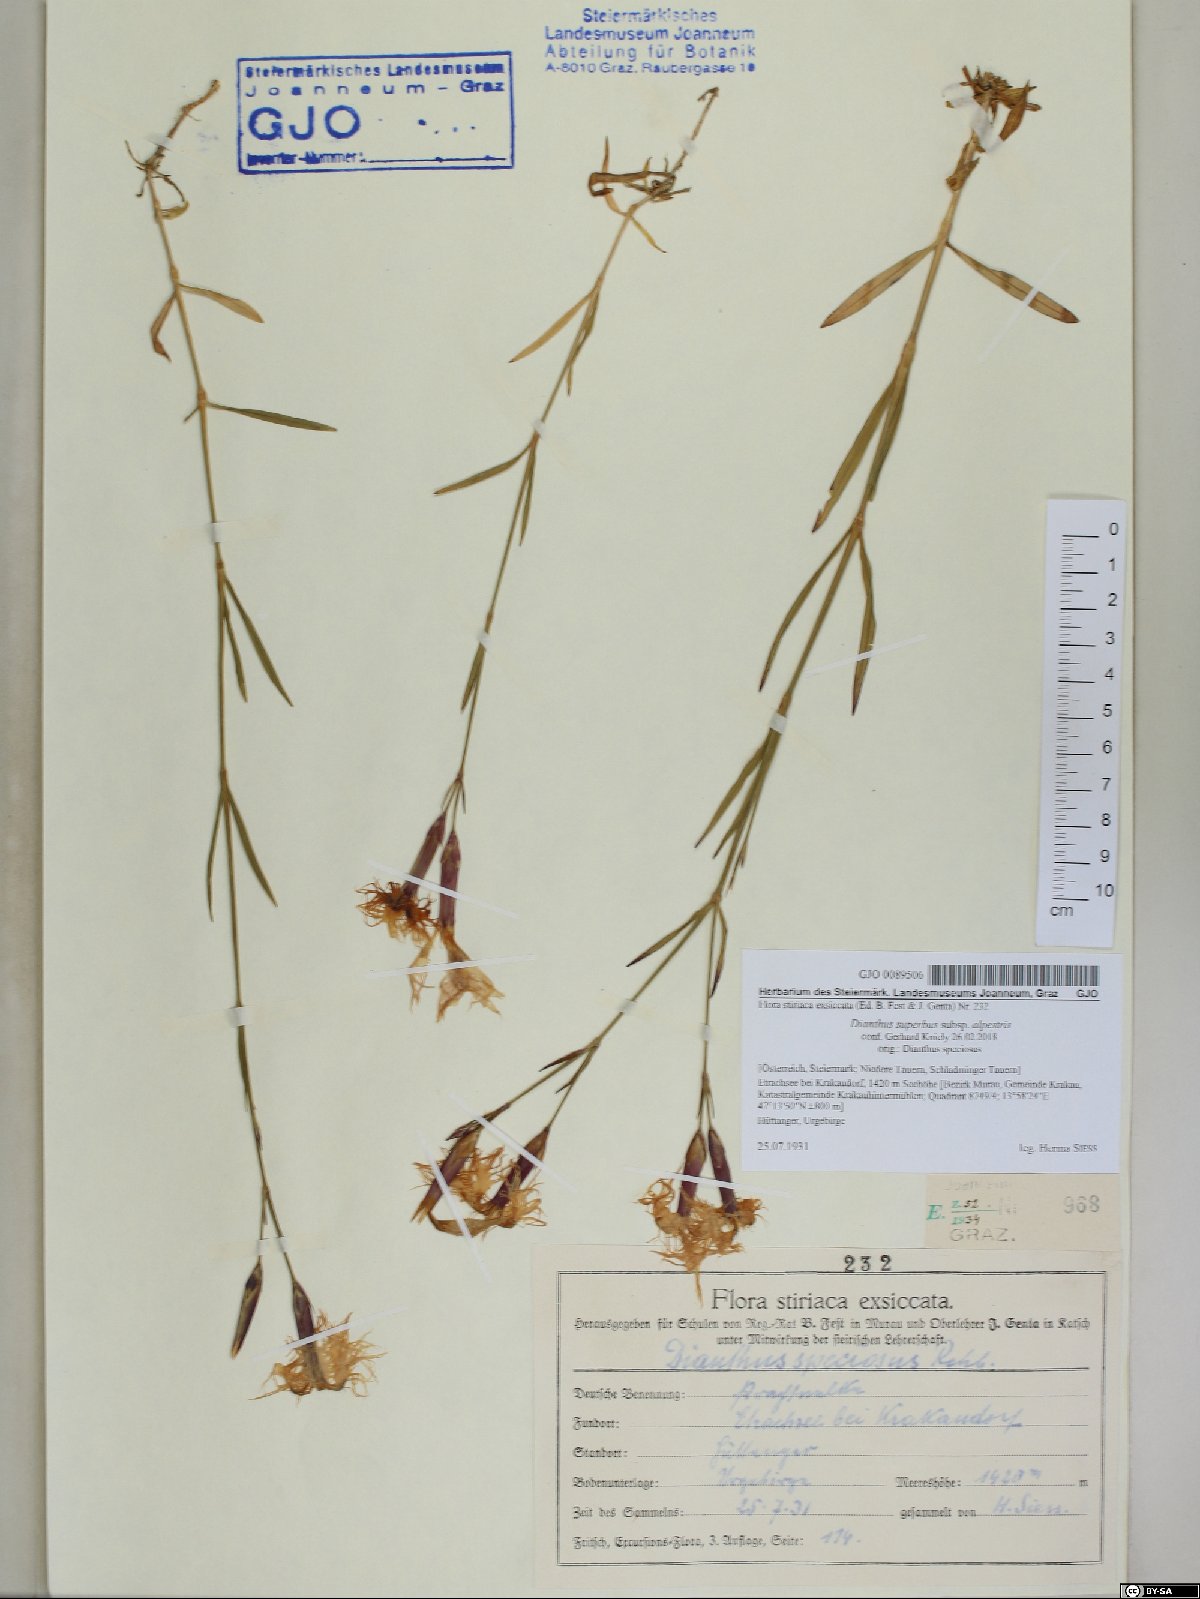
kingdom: Plantae
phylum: Tracheophyta
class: Magnoliopsida
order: Caryophyllales
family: Caryophyllaceae
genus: Dianthus
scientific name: Dianthus superbus
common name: Fringed pink
